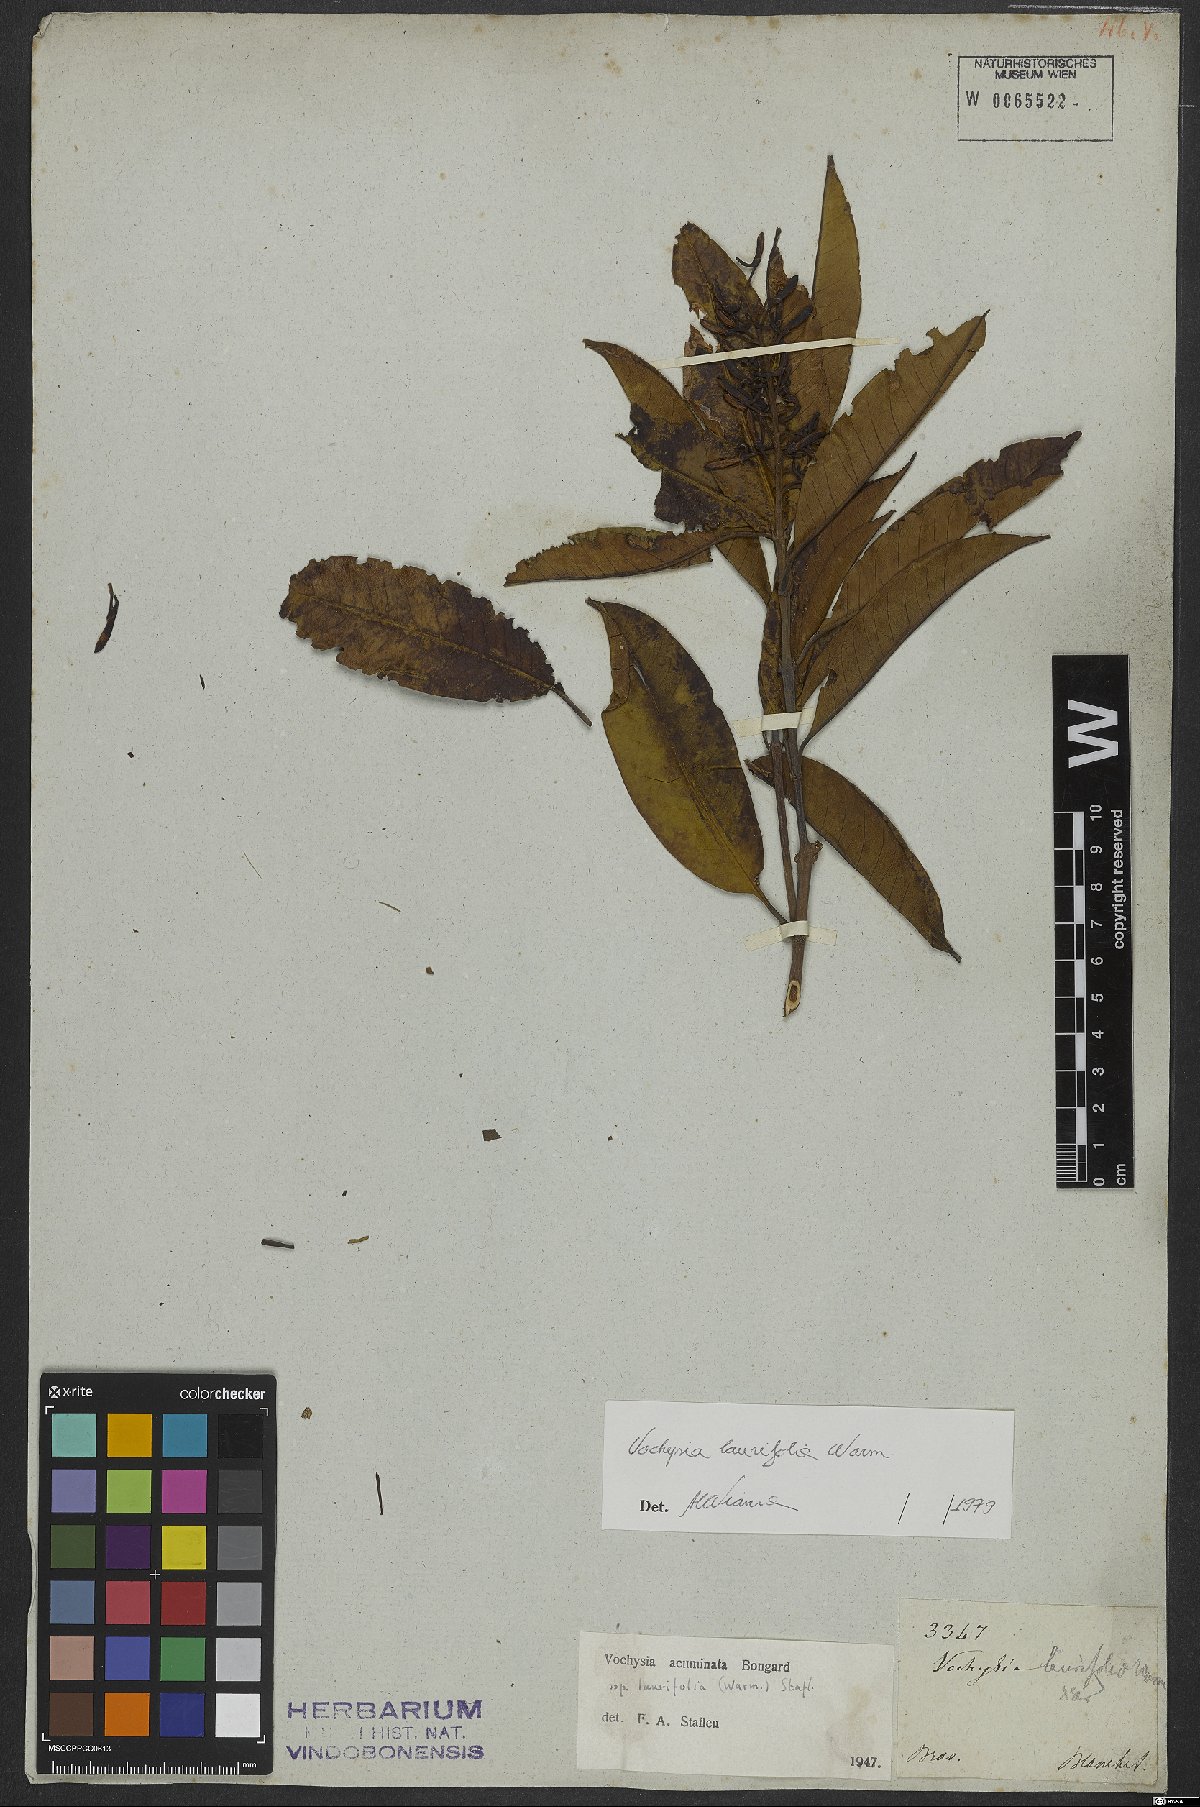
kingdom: Plantae
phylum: Tracheophyta
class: Magnoliopsida
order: Myrtales
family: Vochysiaceae
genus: Vochysia
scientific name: Vochysia laurifolia
